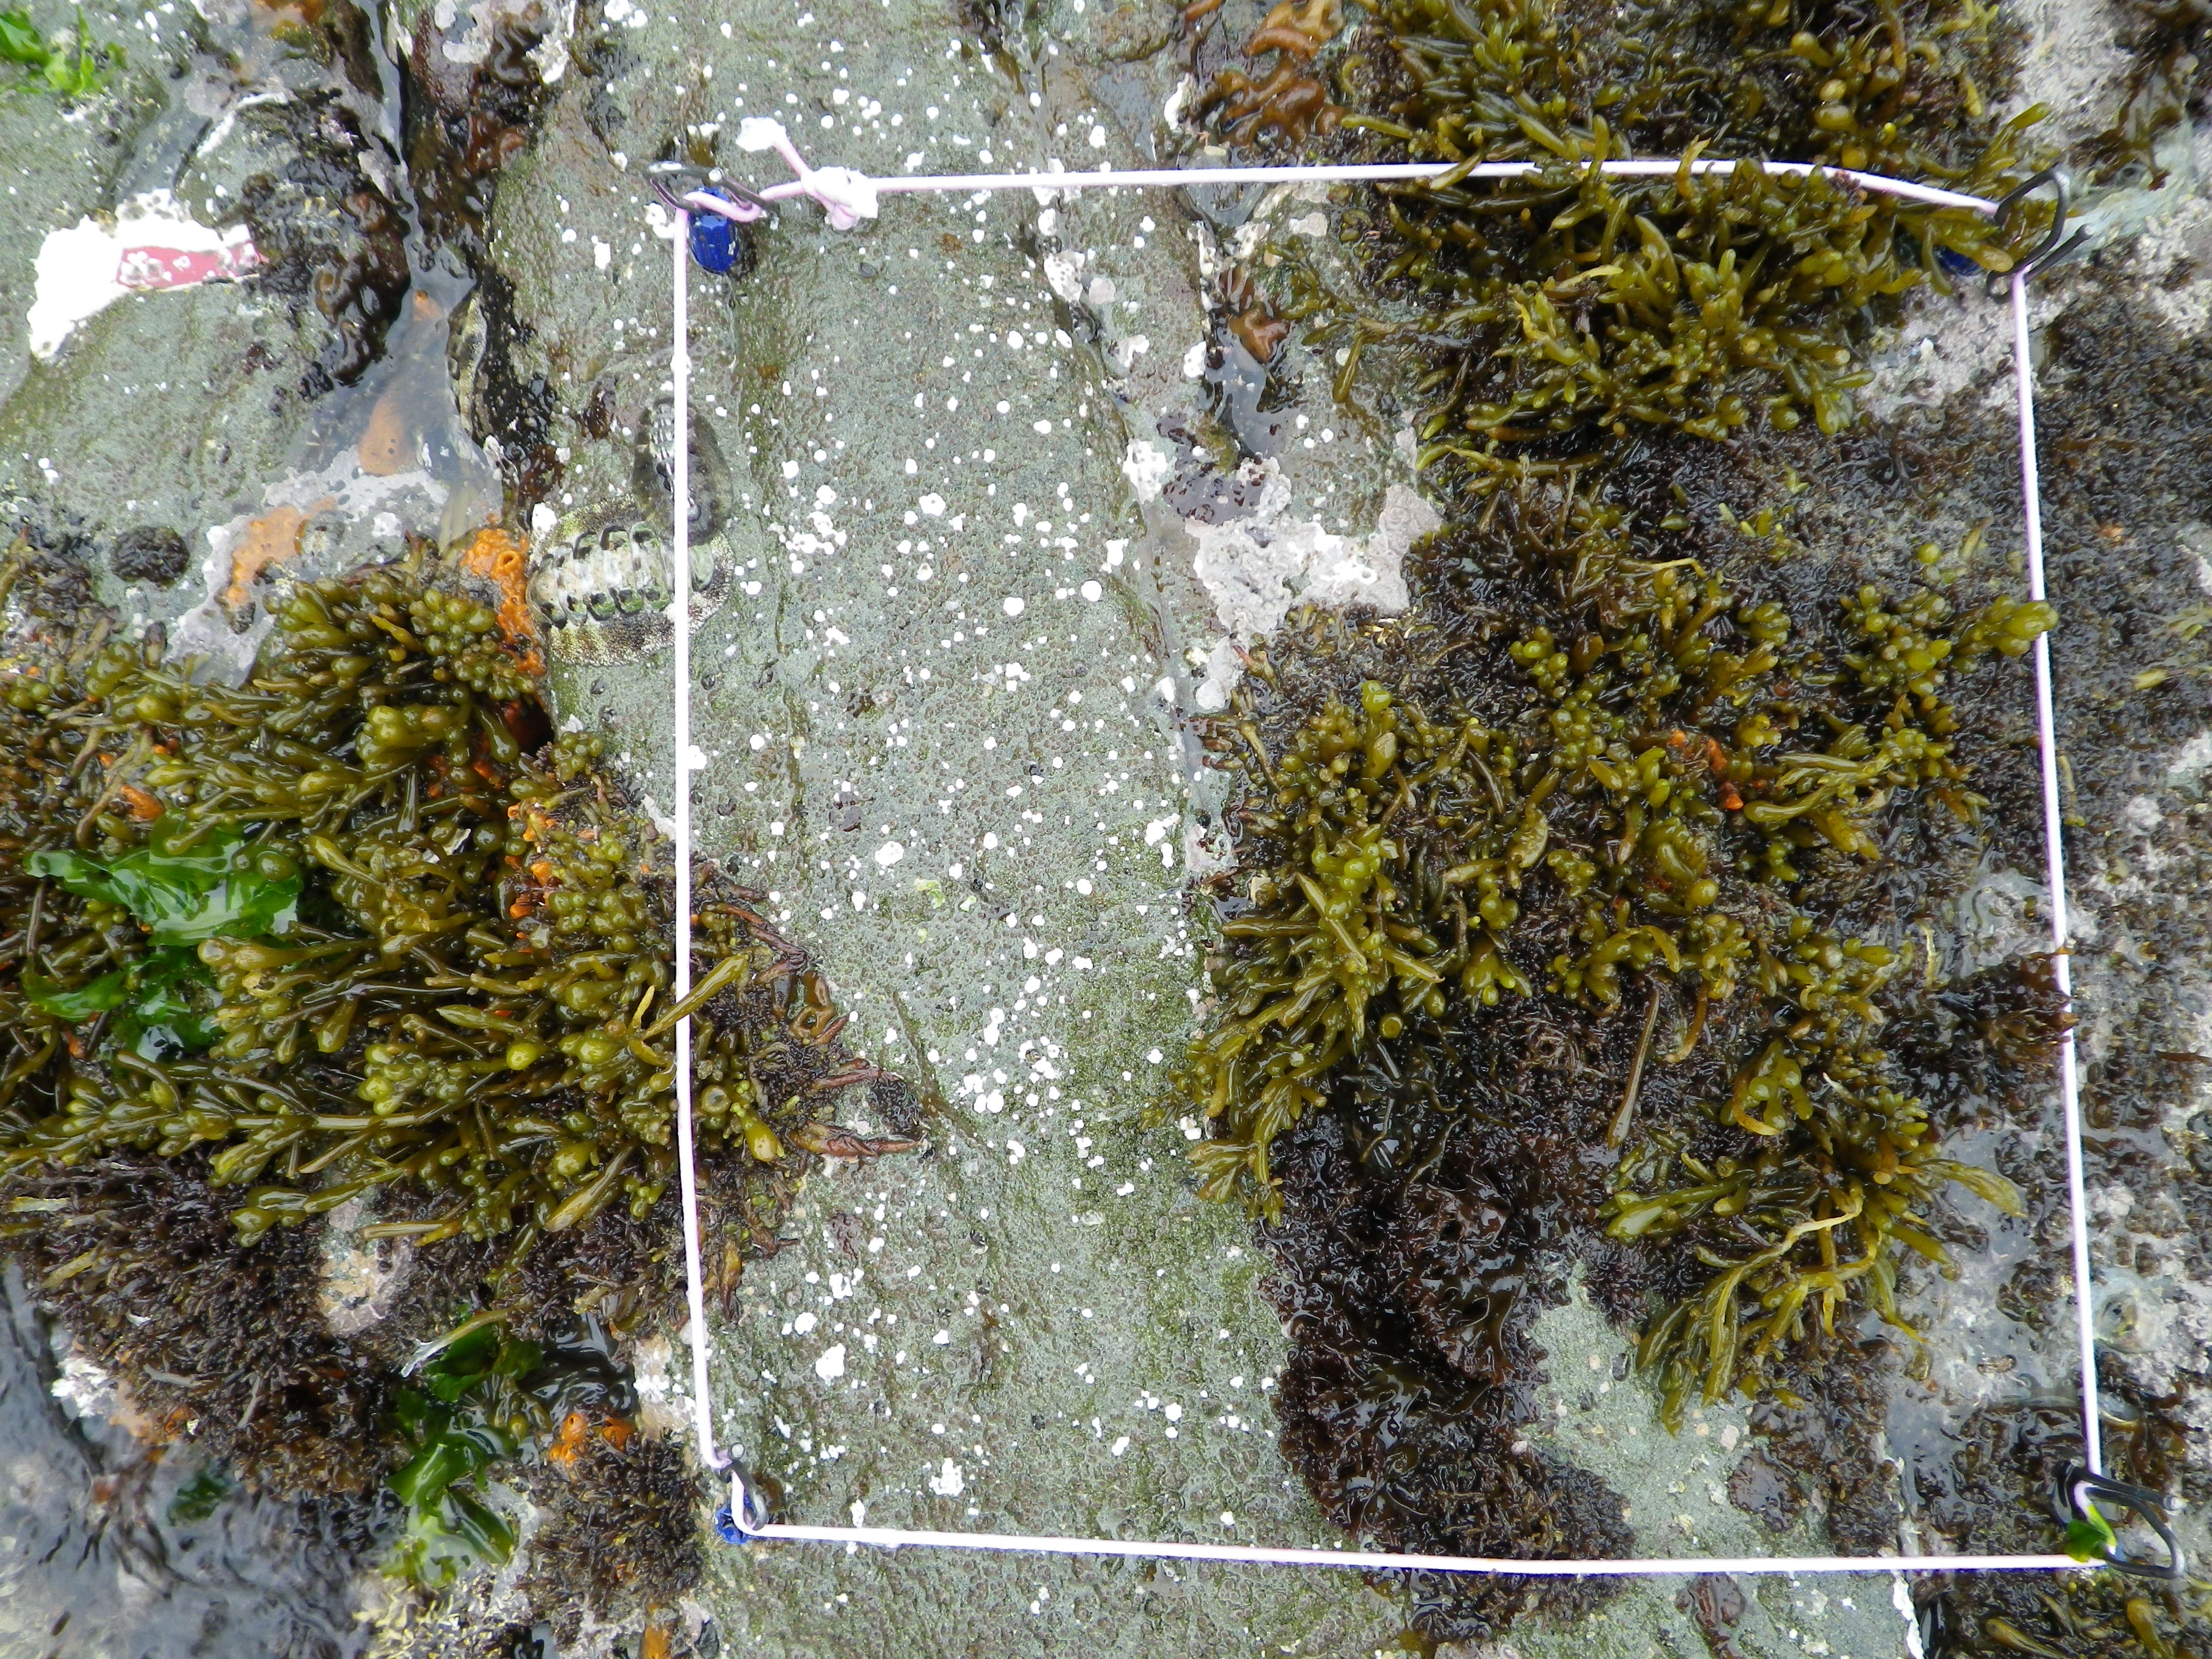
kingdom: Chromista
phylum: Ochrophyta
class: Phaeophyceae
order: Fucales
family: Sargassaceae
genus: Sargassum
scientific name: Sargassum fusiforme
